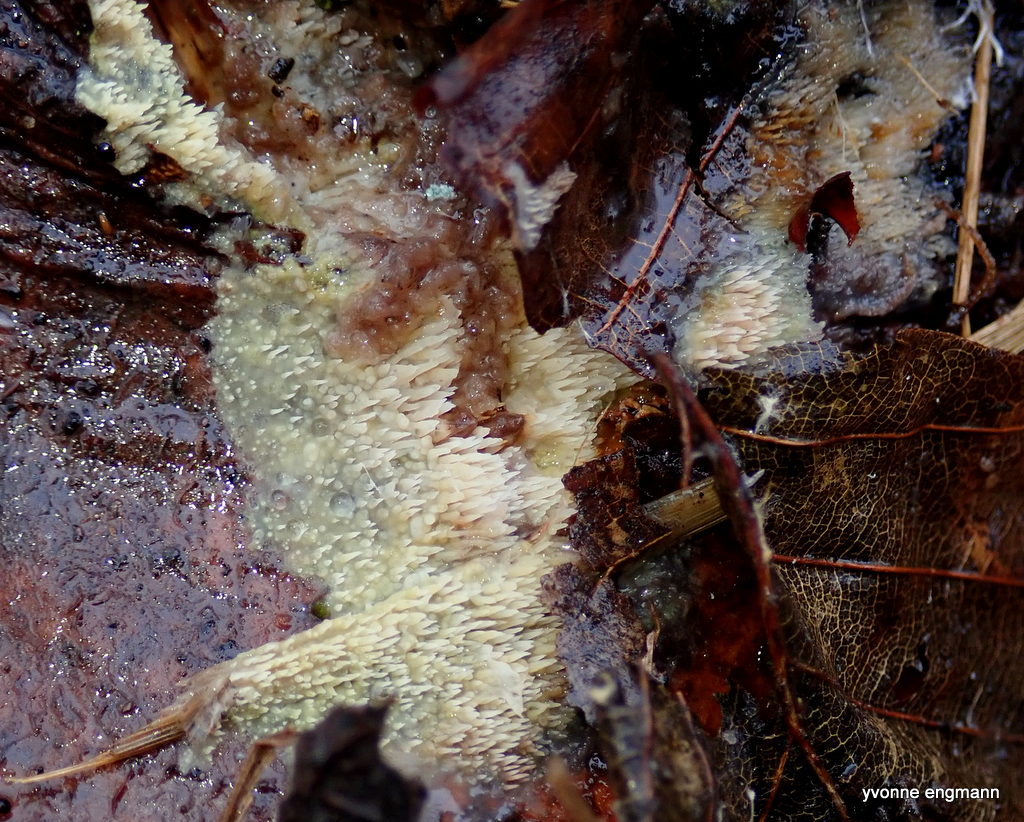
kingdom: Fungi
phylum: Basidiomycota
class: Agaricomycetes
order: Polyporales
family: Meruliaceae
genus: Mycoacia
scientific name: Mycoacia uda
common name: citrongul vokspig
